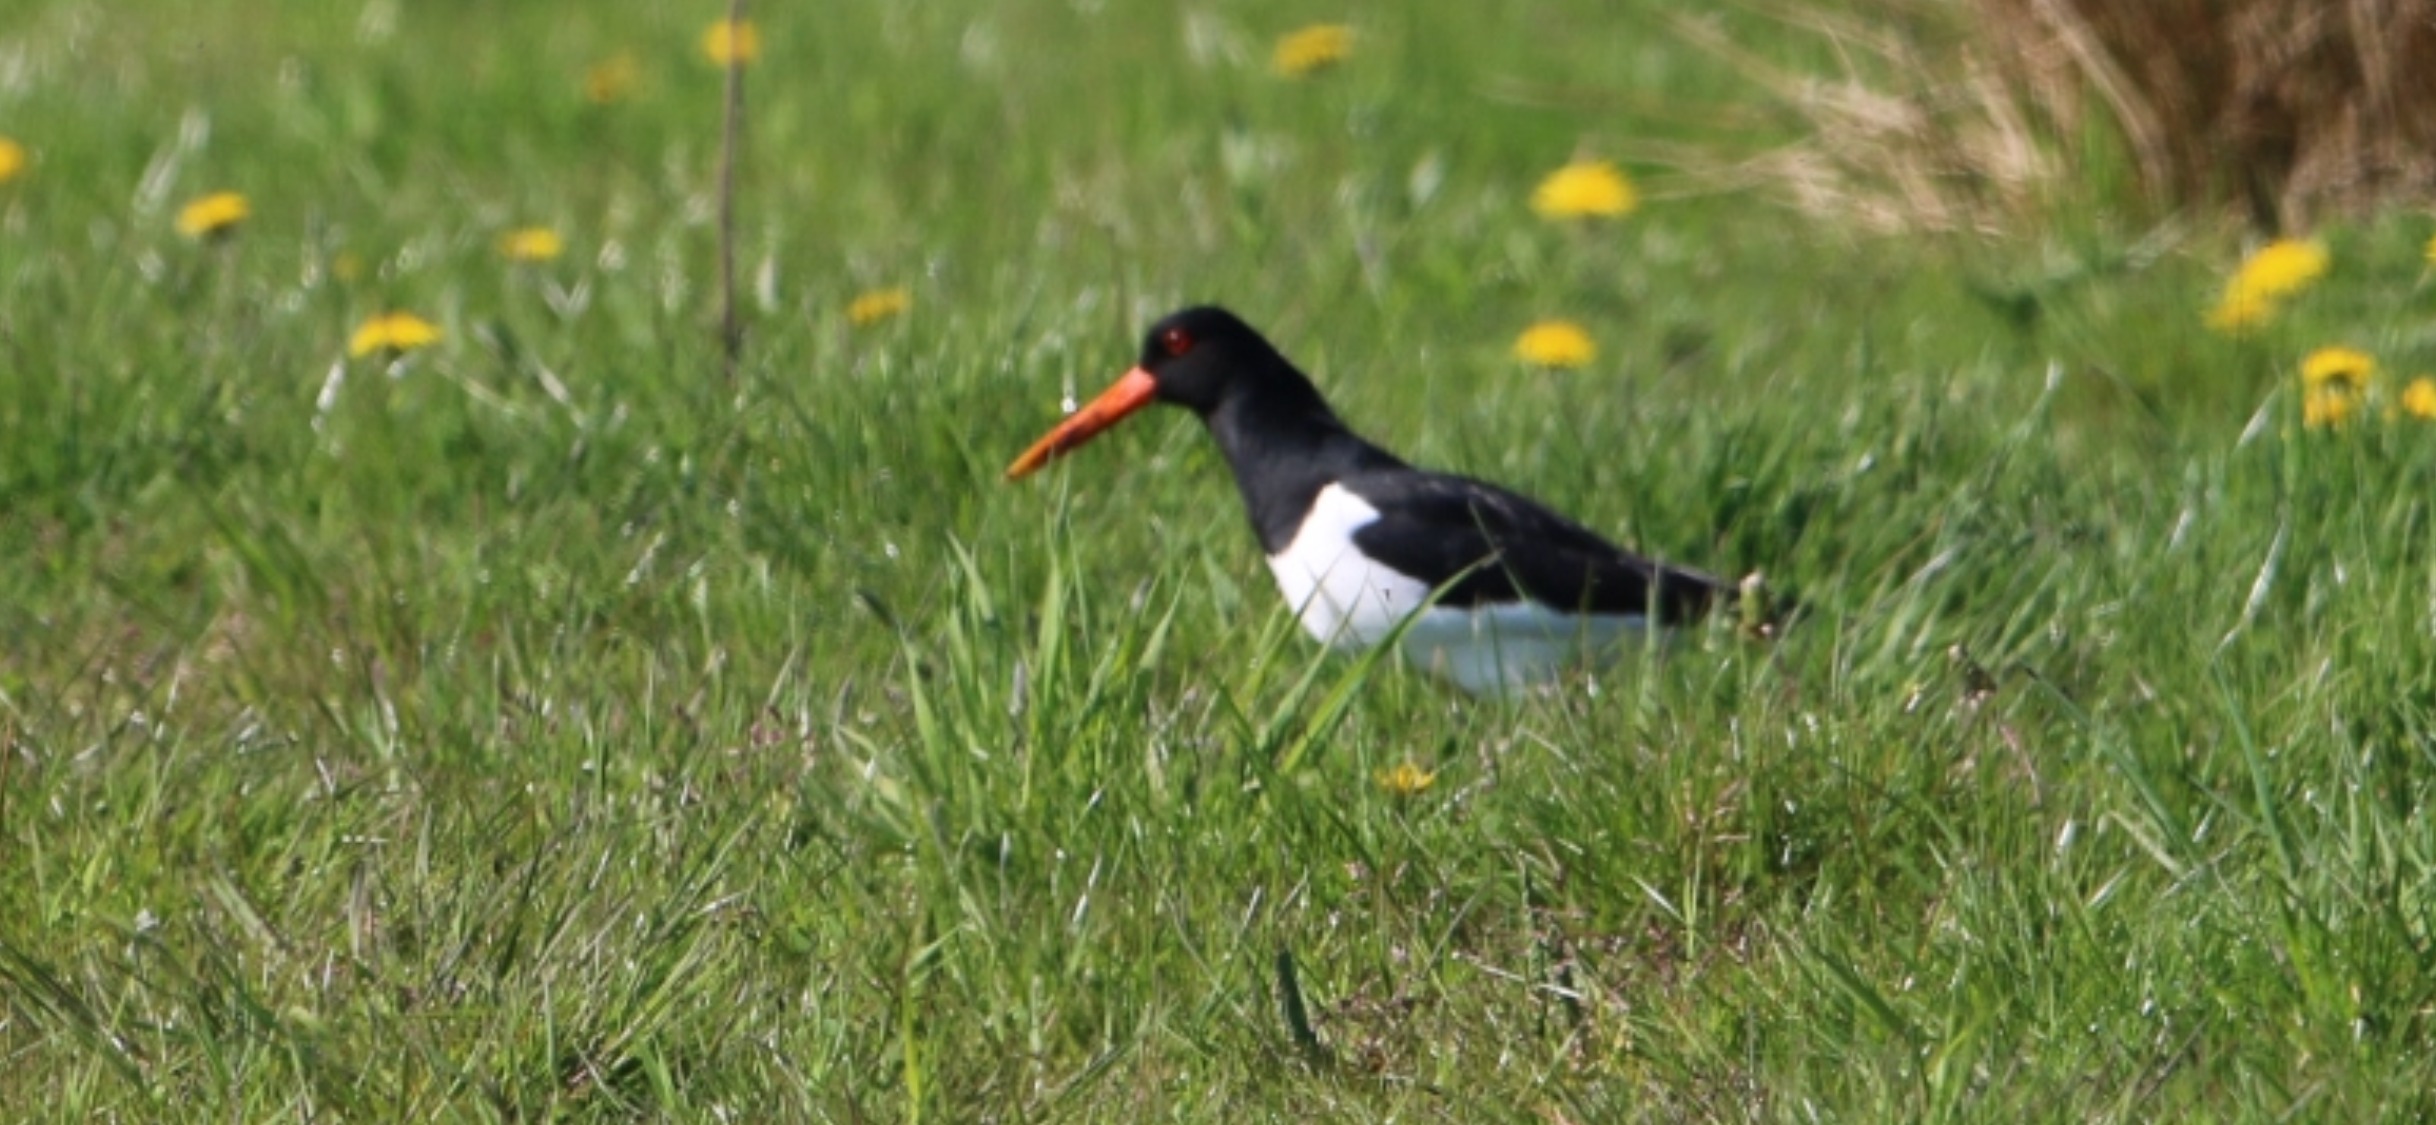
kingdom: Animalia
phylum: Chordata
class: Aves
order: Charadriiformes
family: Haematopodidae
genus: Haematopus
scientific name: Haematopus ostralegus
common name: Strandskade
